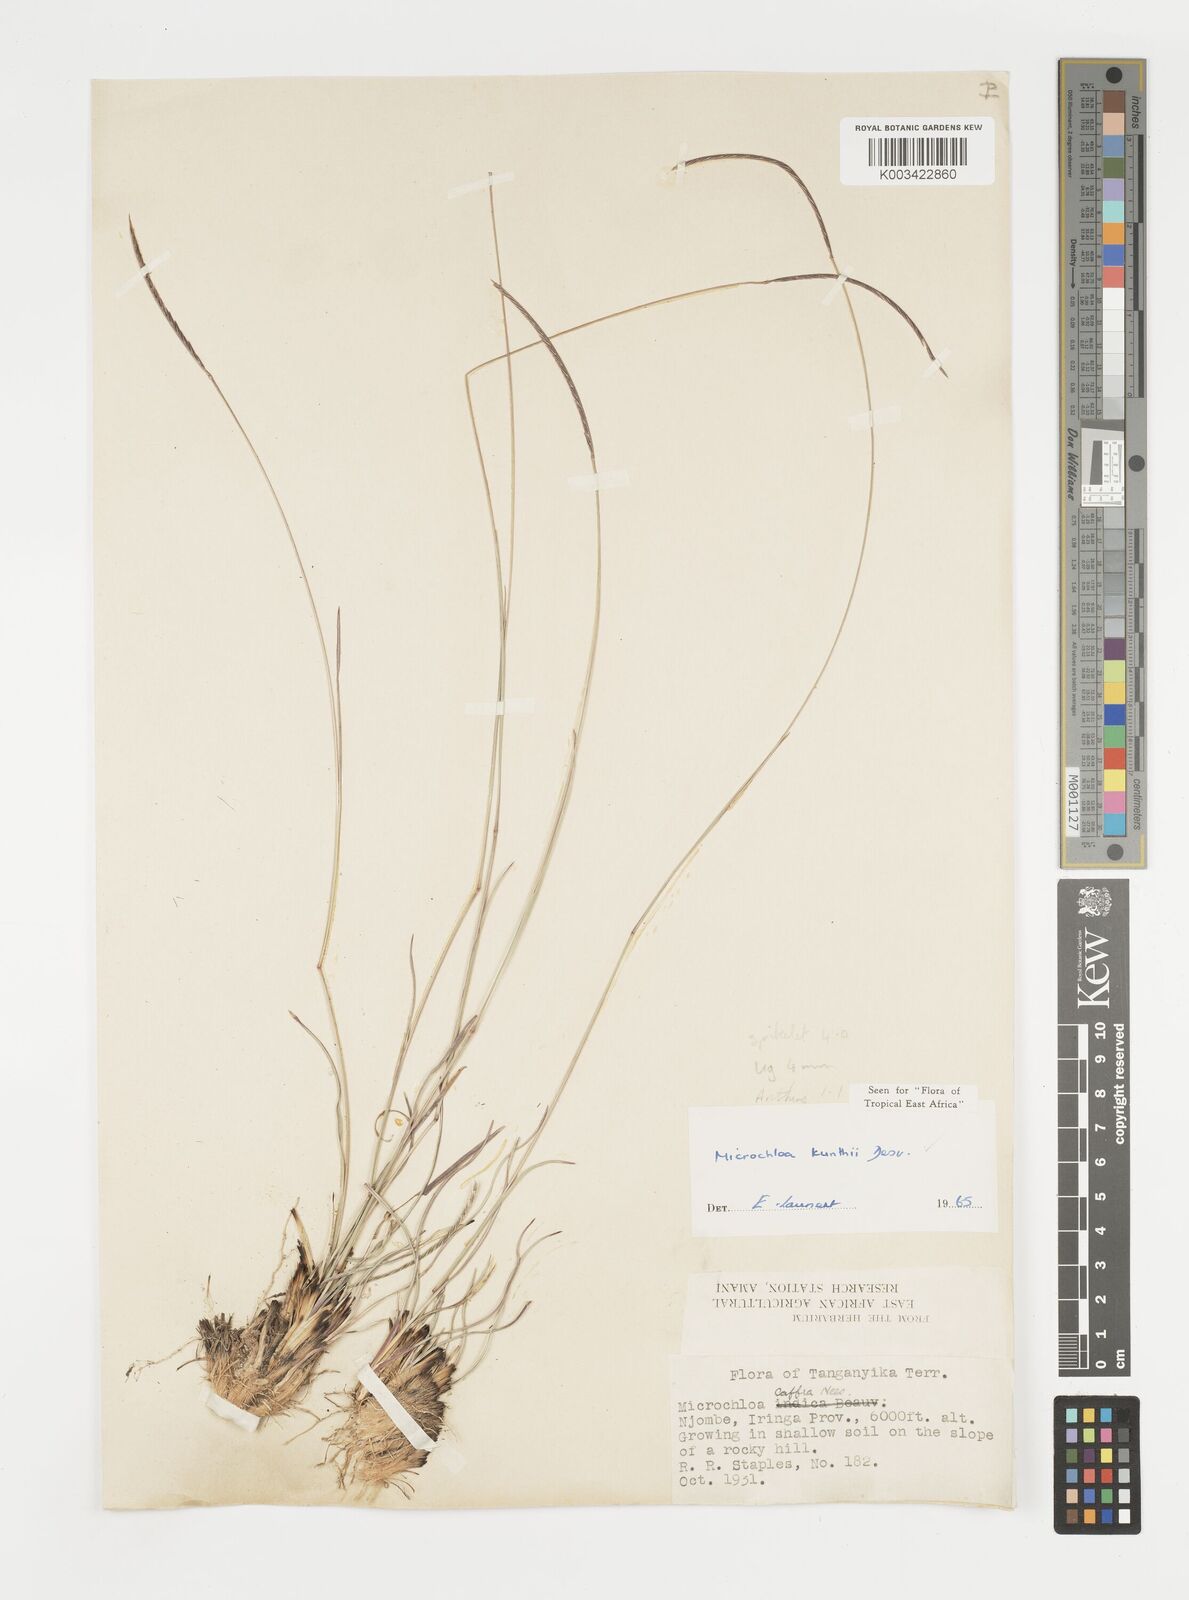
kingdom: Plantae
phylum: Tracheophyta
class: Liliopsida
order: Poales
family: Poaceae
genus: Microchloa
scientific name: Microchloa kunthii
